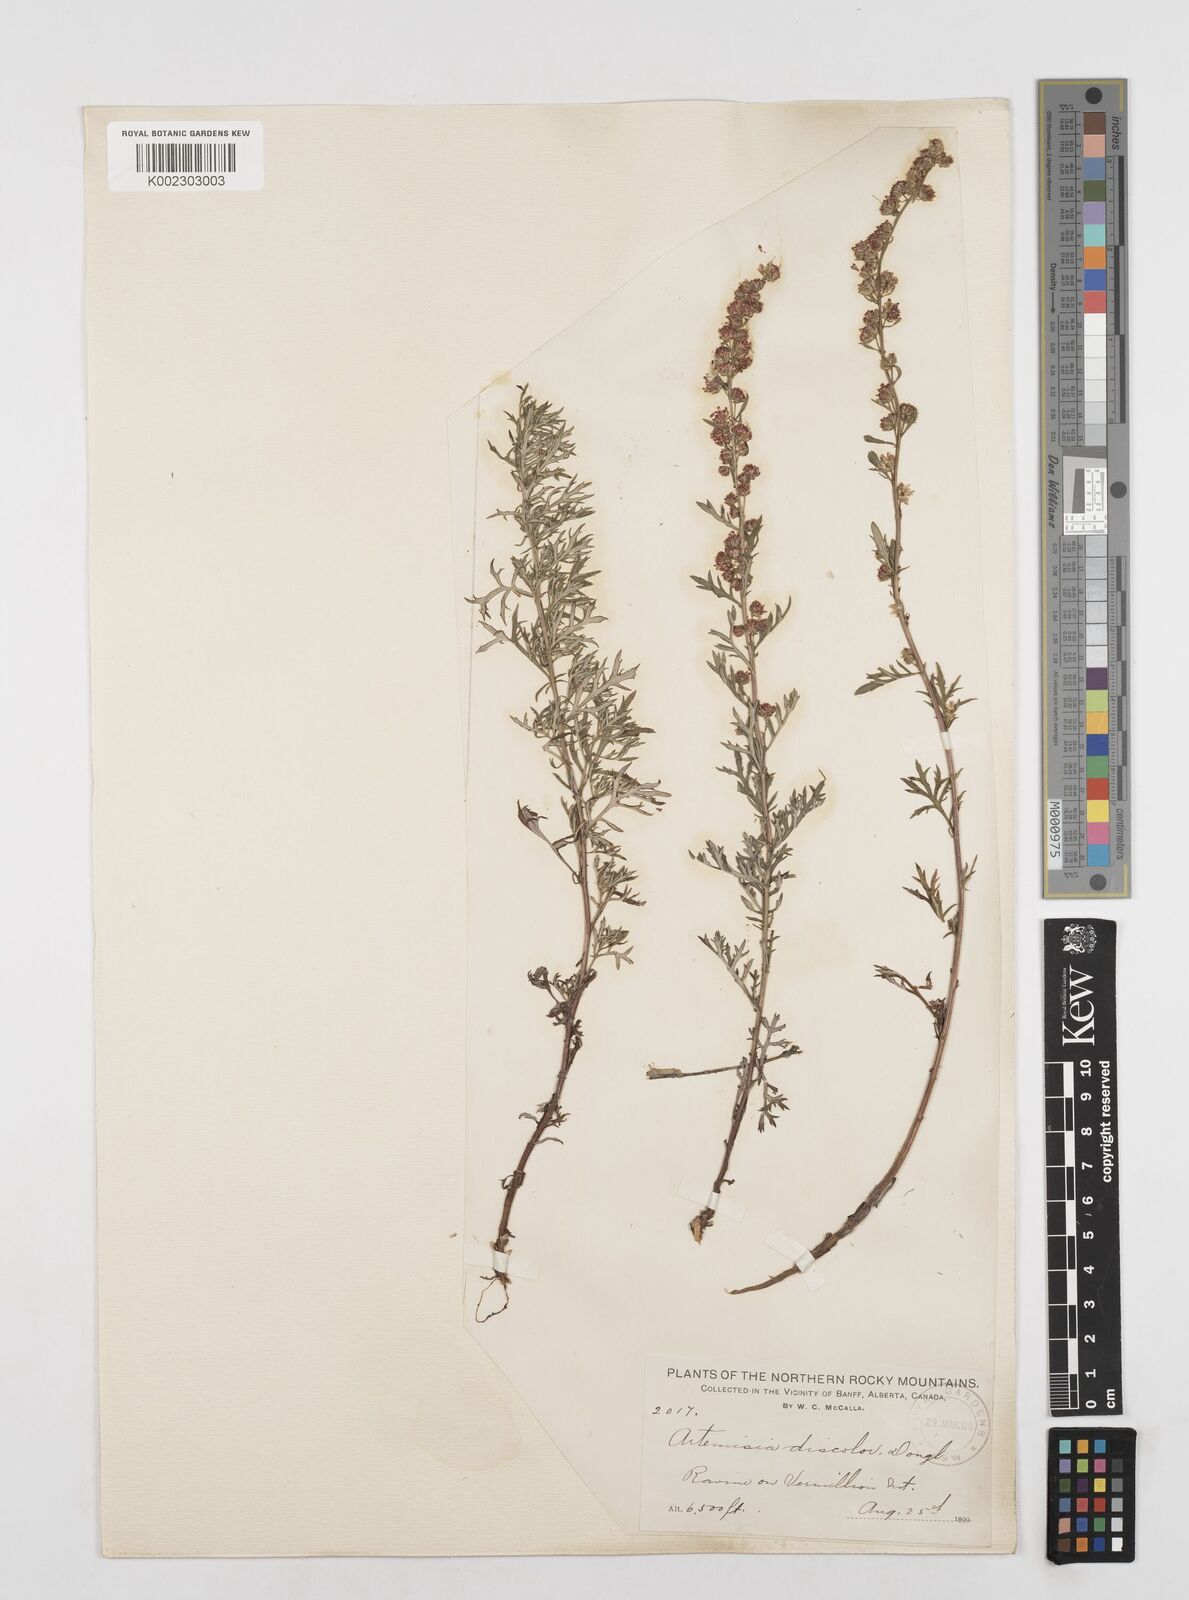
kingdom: Plantae
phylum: Tracheophyta
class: Magnoliopsida
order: Asterales
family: Asteraceae
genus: Artemisia
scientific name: Artemisia michauxiana
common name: Lemon sagewort
